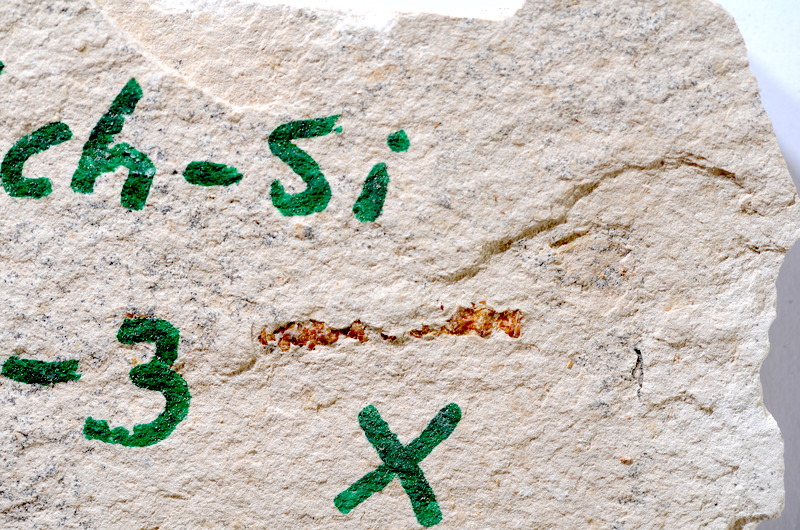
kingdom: Animalia
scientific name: Animalia
